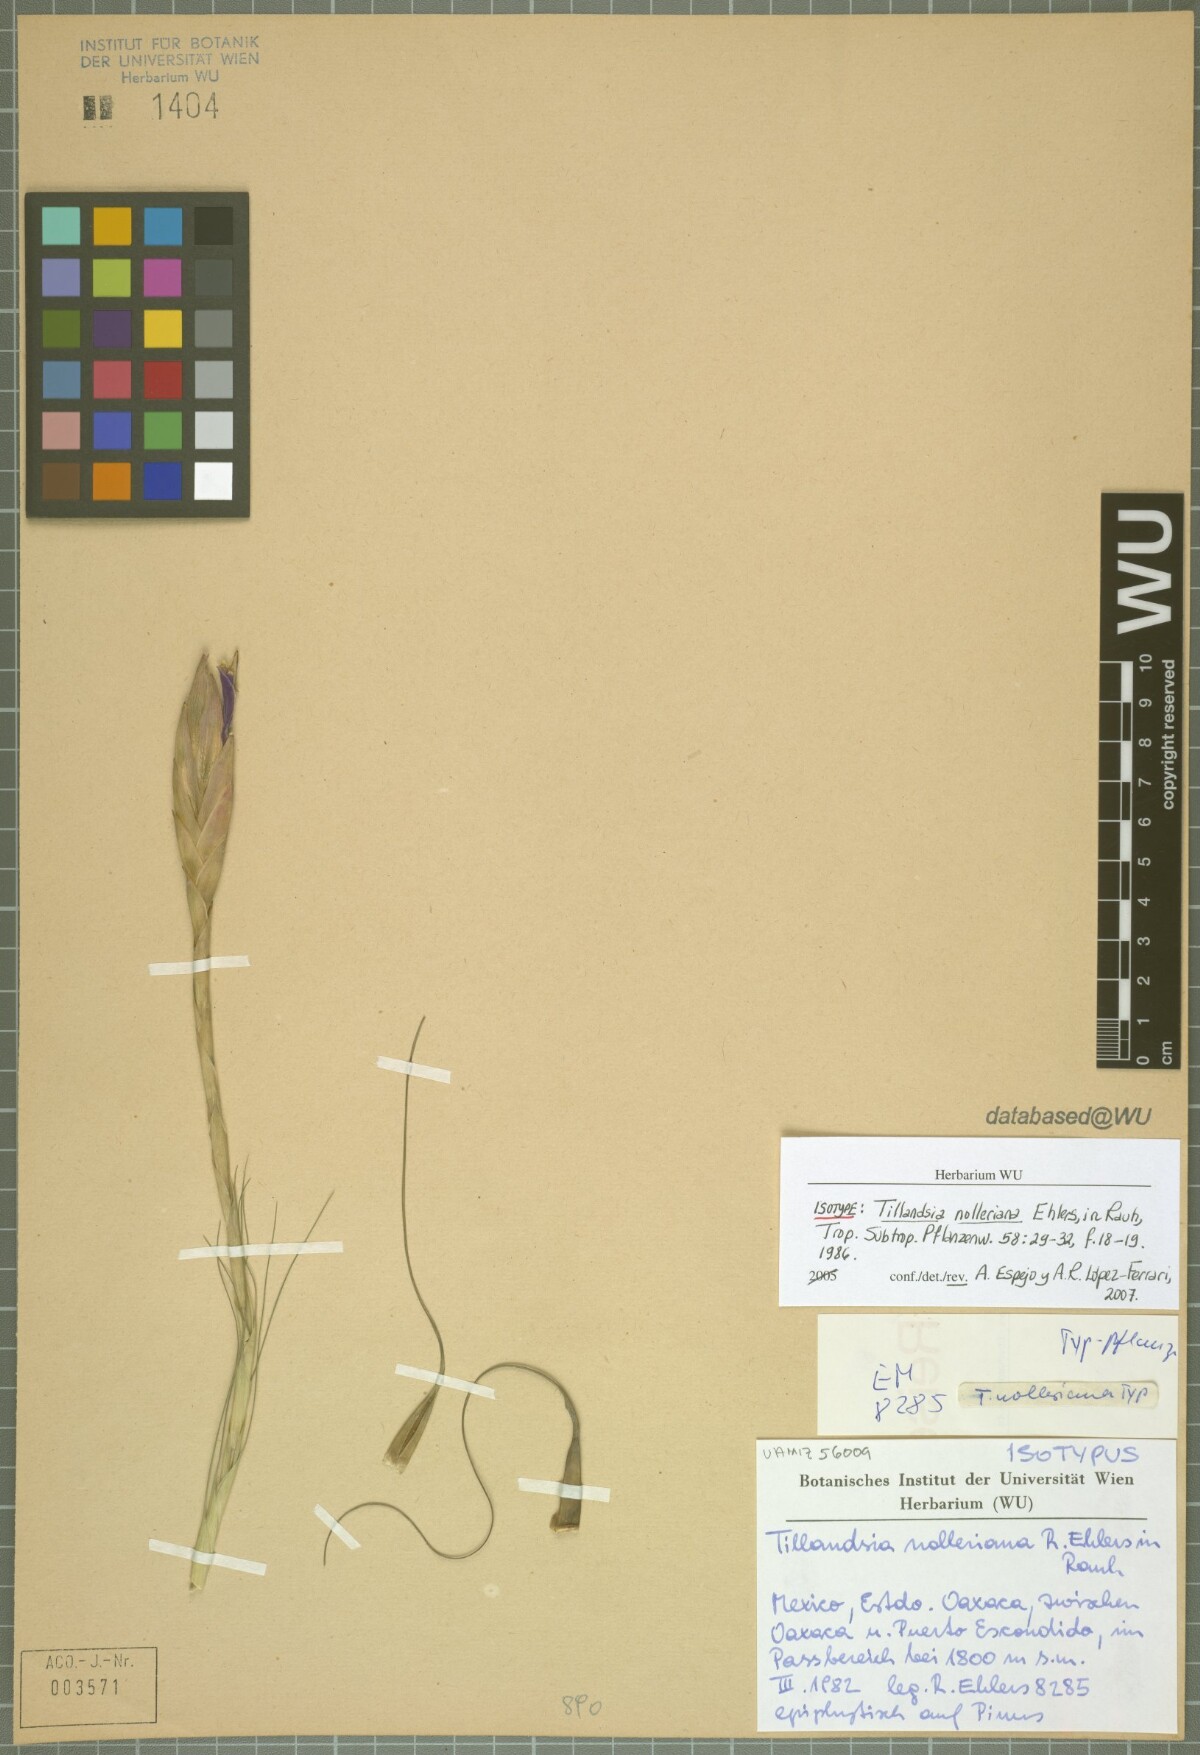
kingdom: Plantae
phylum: Tracheophyta
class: Liliopsida
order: Poales
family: Bromeliaceae
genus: Tillandsia
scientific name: Tillandsia nolleriana
